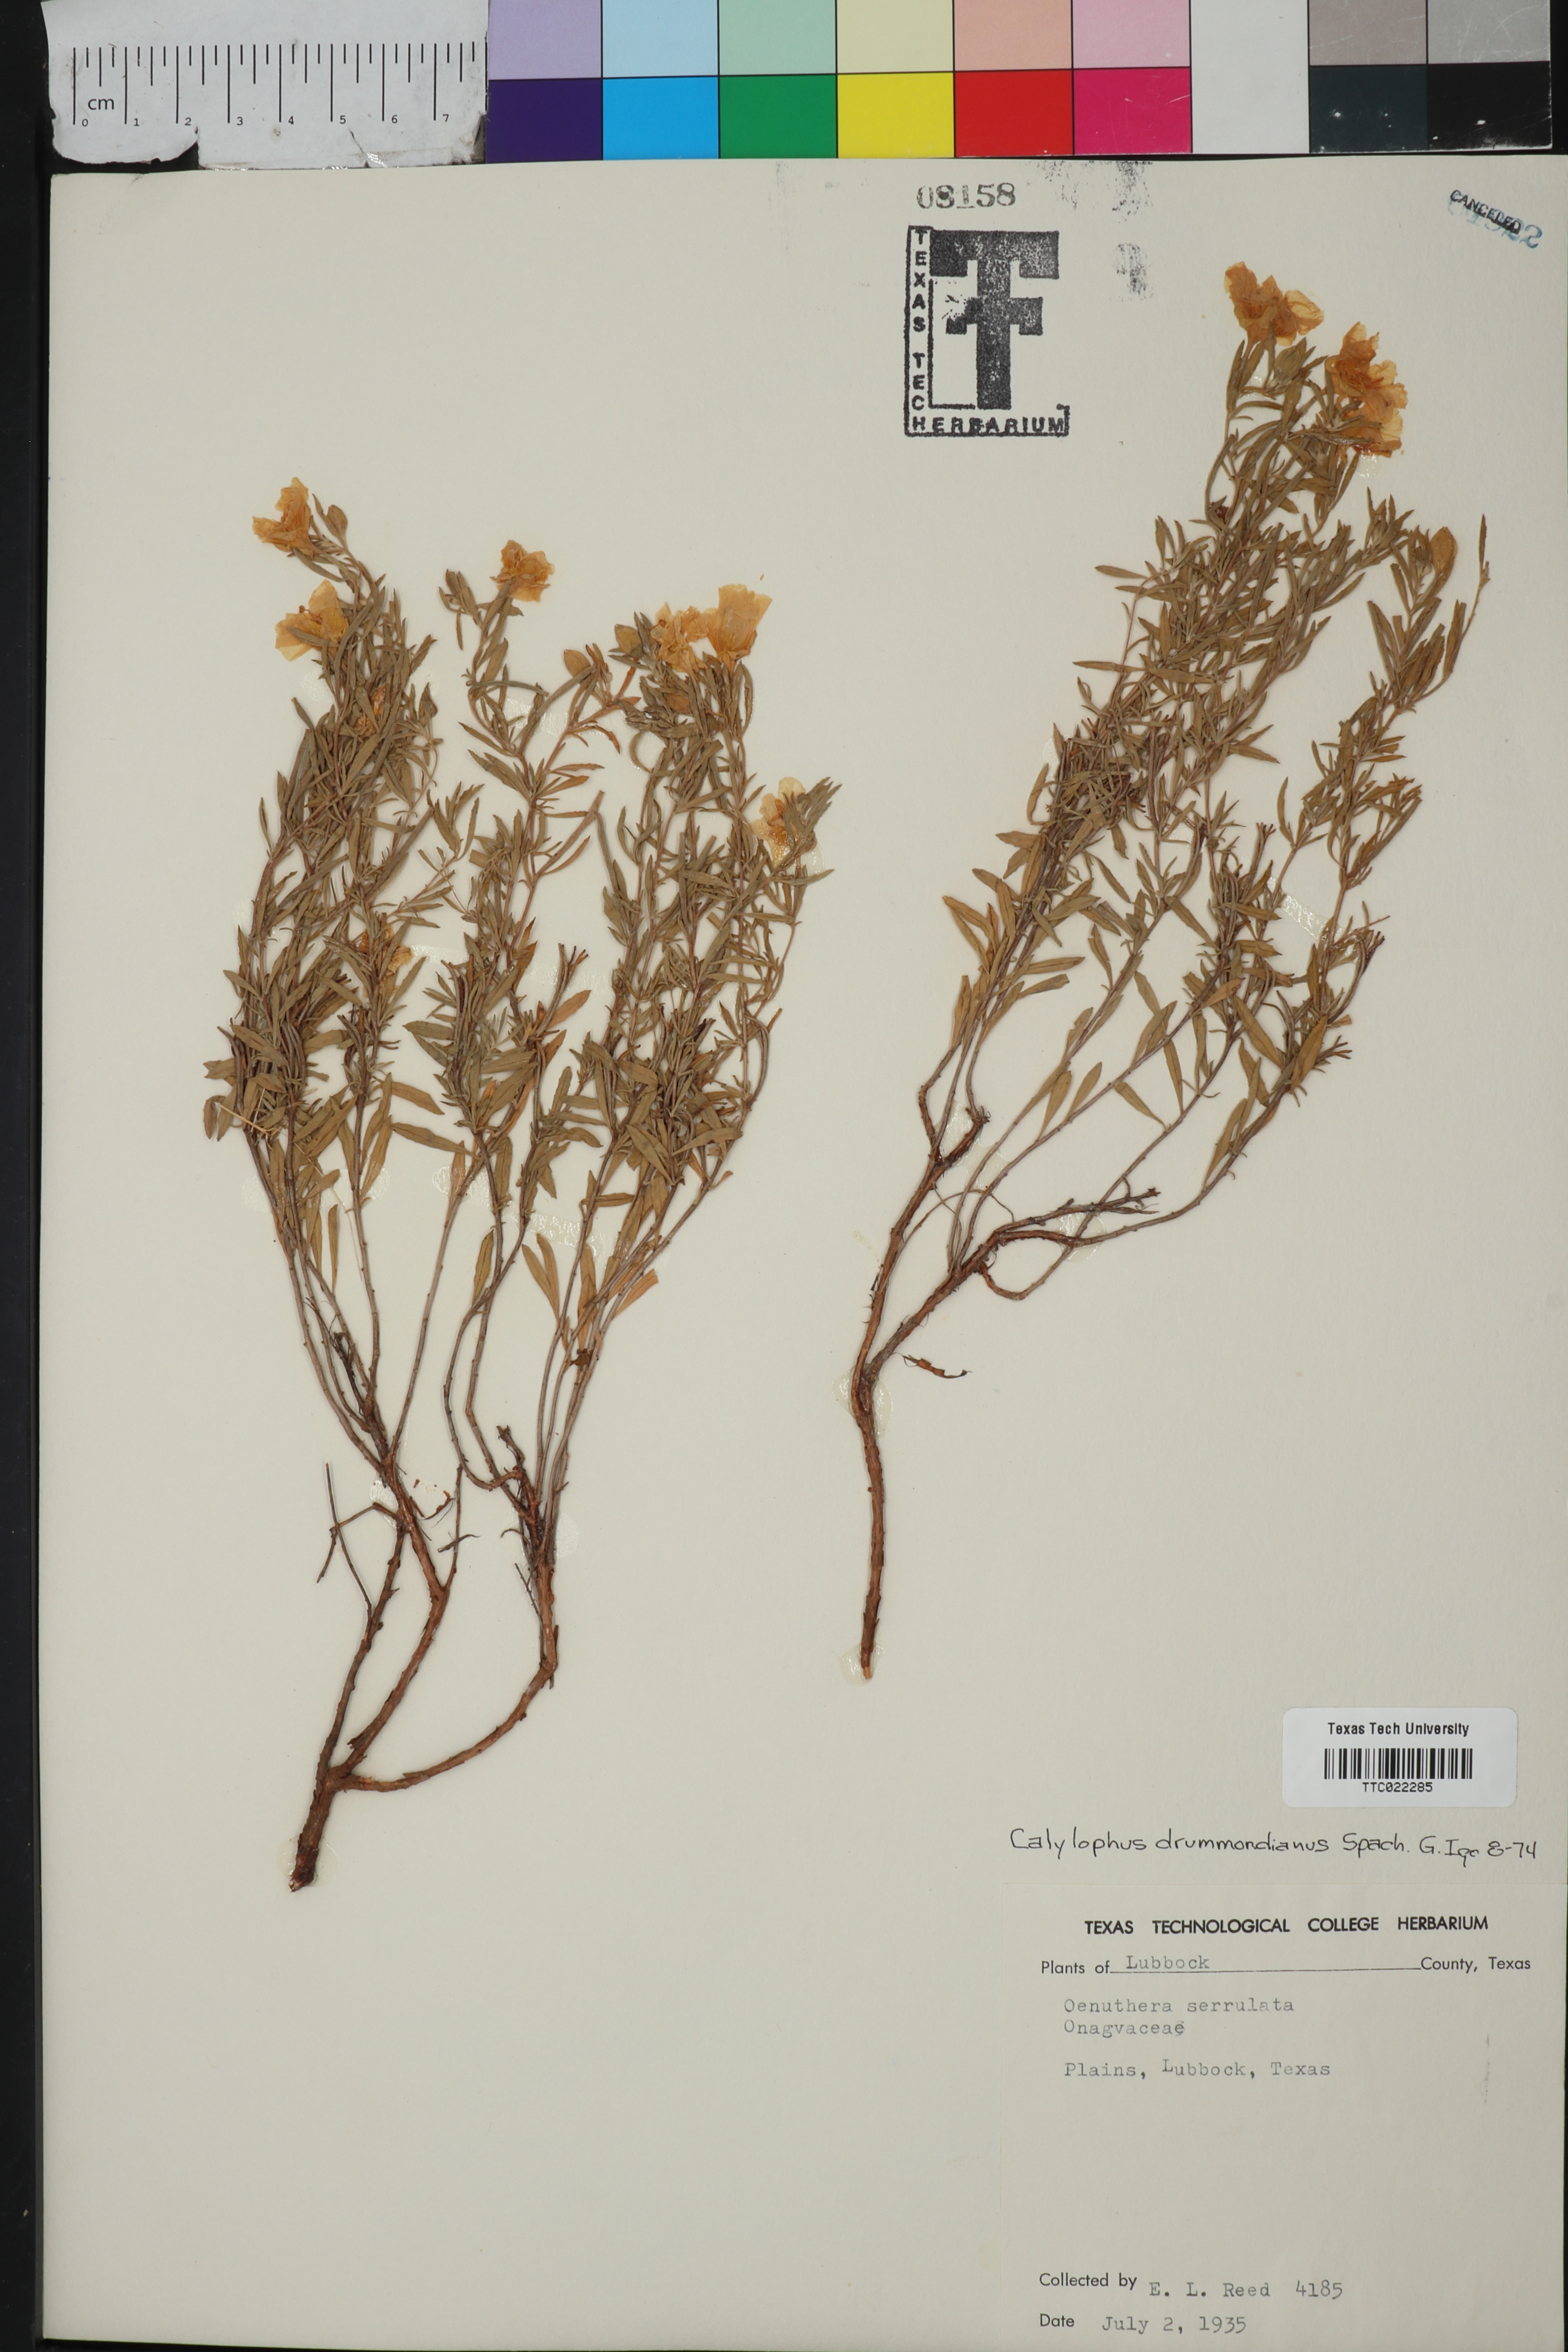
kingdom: Plantae
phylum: Tracheophyta
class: Magnoliopsida
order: Myrtales
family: Onagraceae
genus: Oenothera
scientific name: Oenothera serrulata
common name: Half-shrub calylophus
